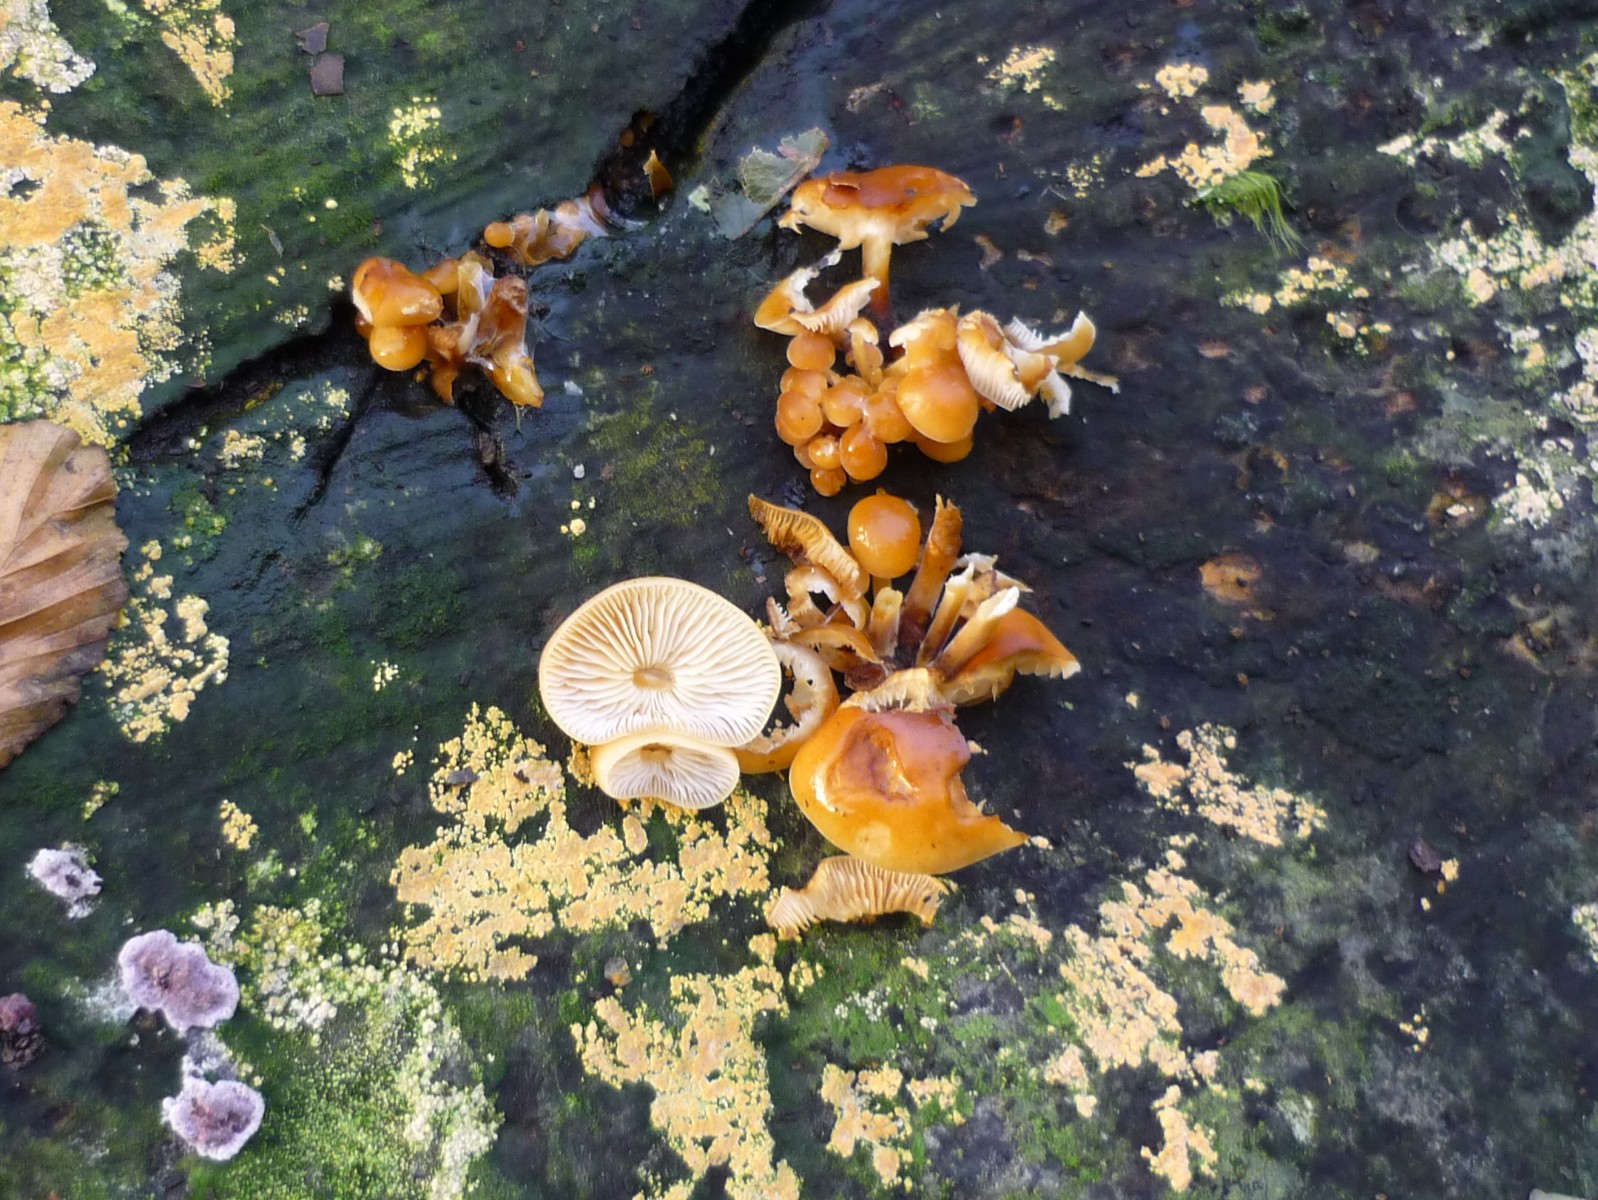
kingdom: Fungi
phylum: Basidiomycota
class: Agaricomycetes
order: Agaricales
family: Physalacriaceae
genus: Flammulina
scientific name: Flammulina velutipes
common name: gul fløjlsfod
